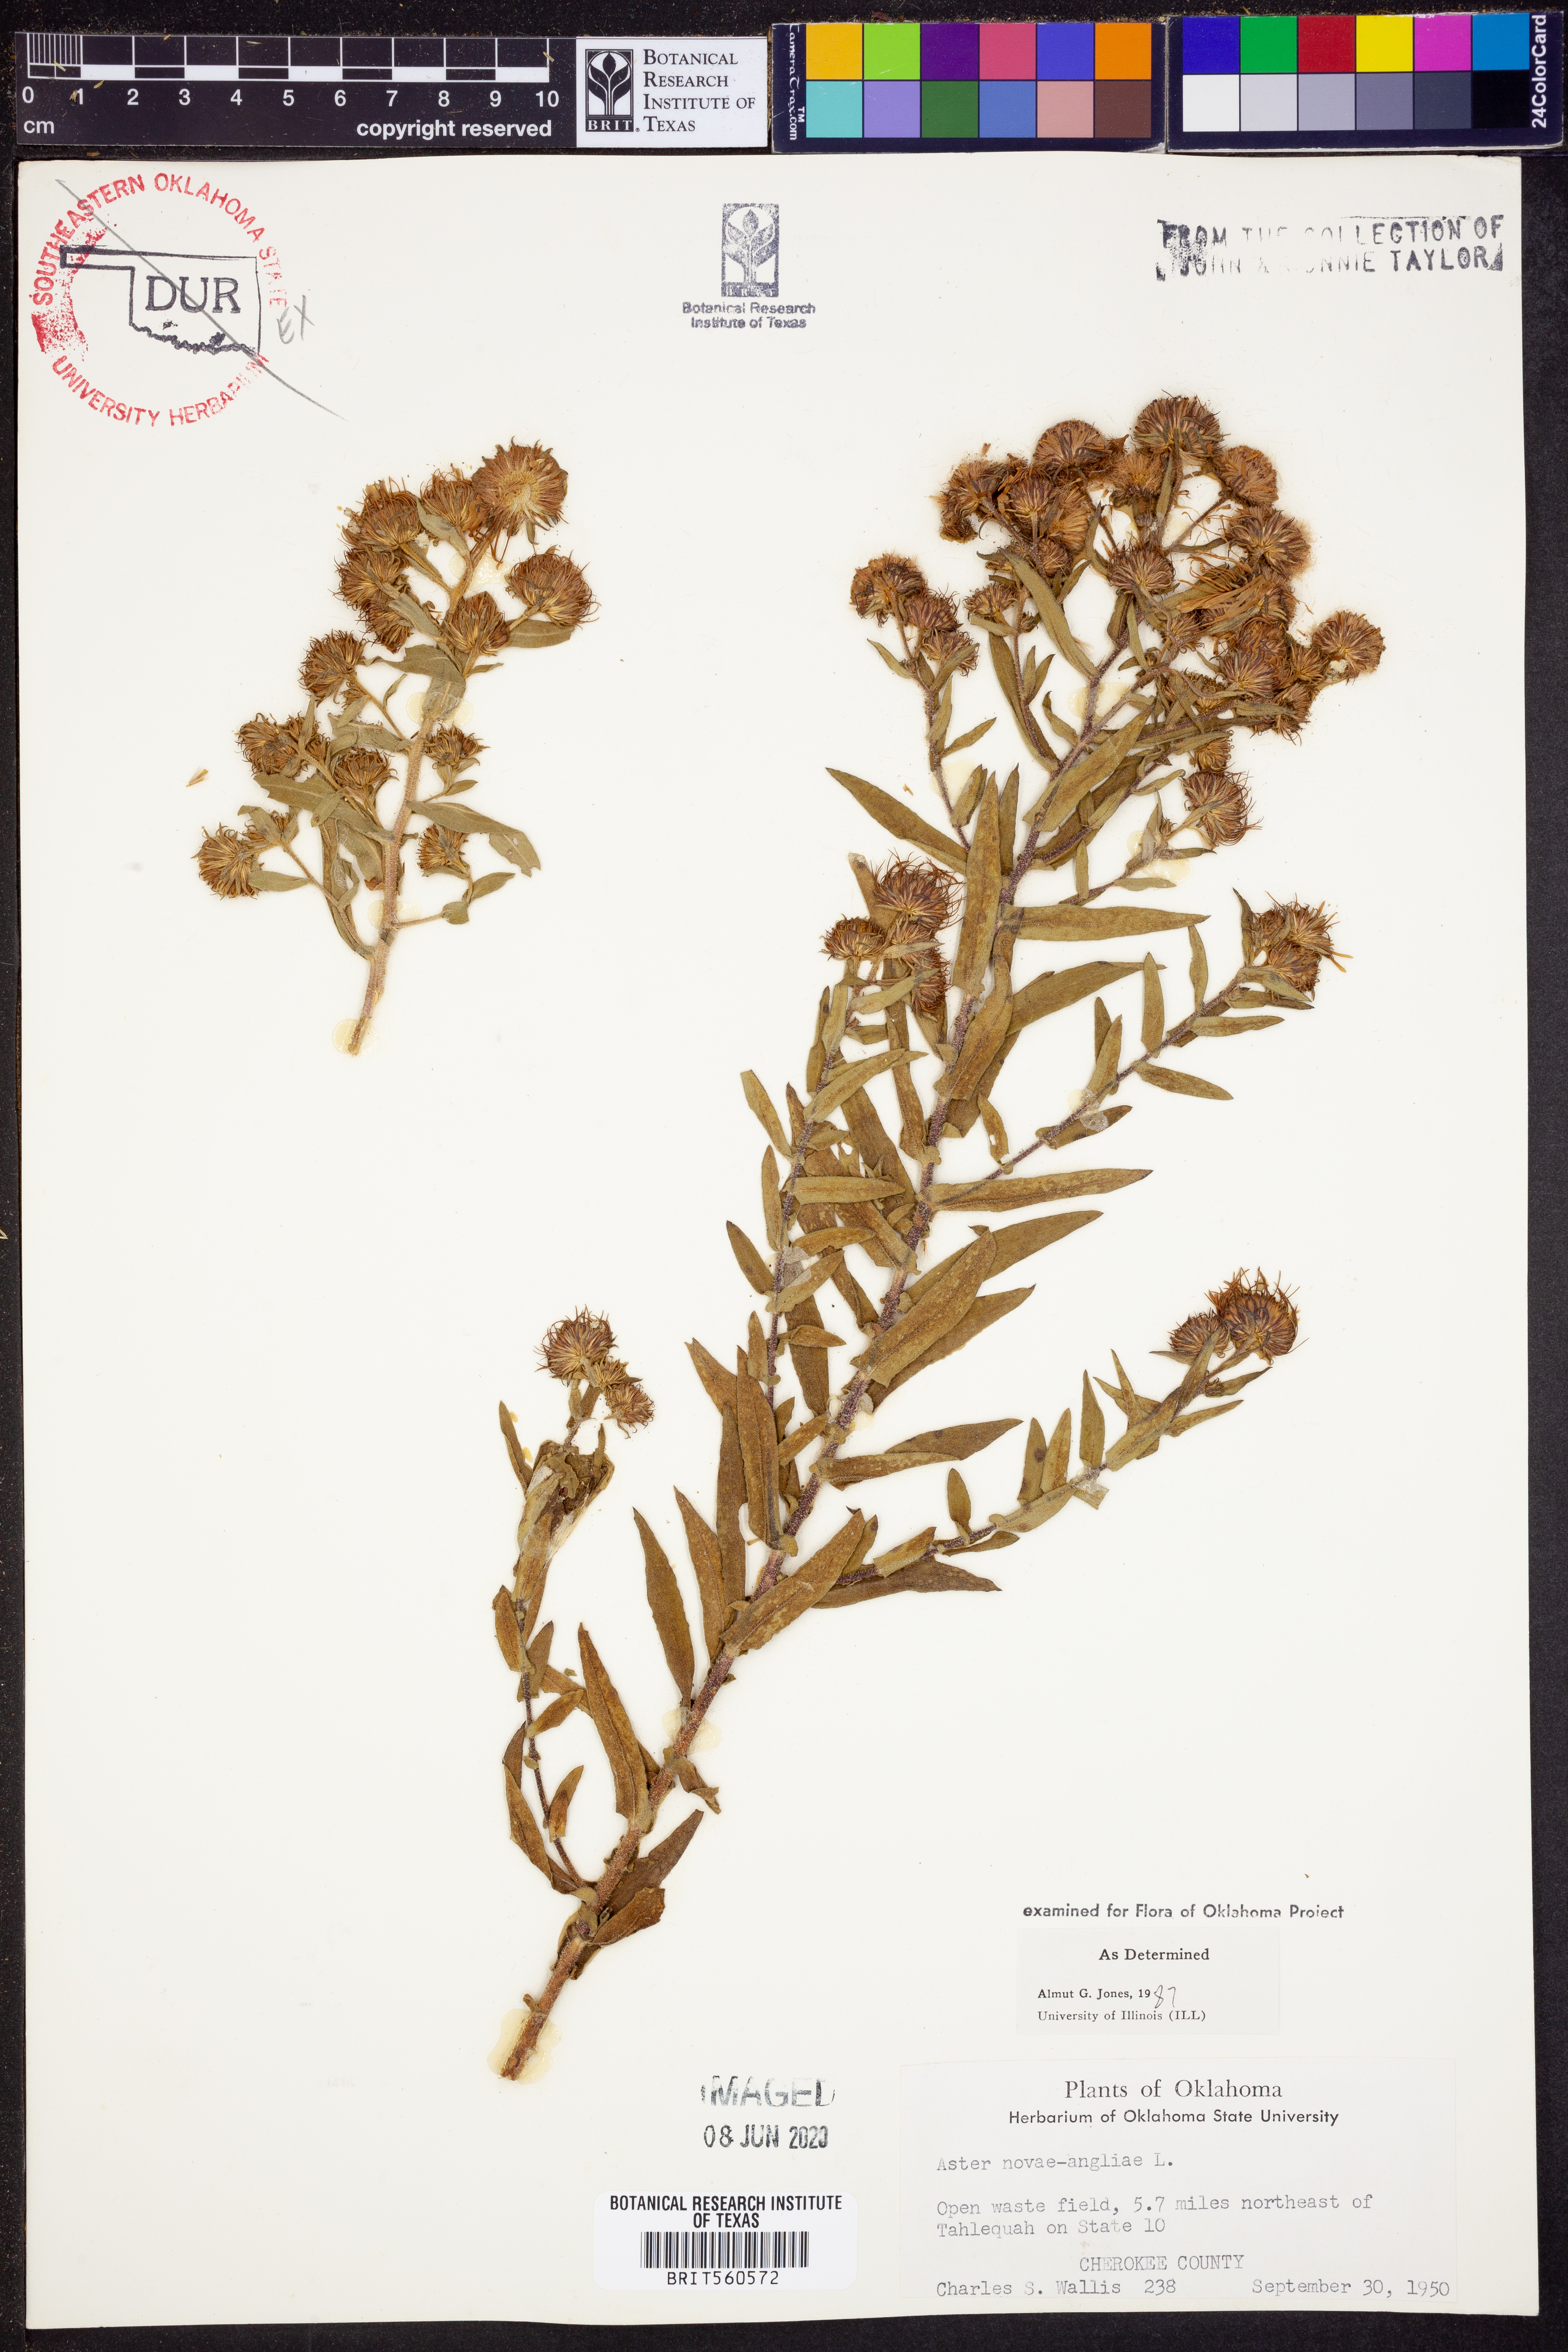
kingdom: Plantae
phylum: Tracheophyta
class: Magnoliopsida
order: Asterales
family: Asteraceae
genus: Symphyotrichum
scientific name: Symphyotrichum novae-angliae
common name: Michaelmas daisy
